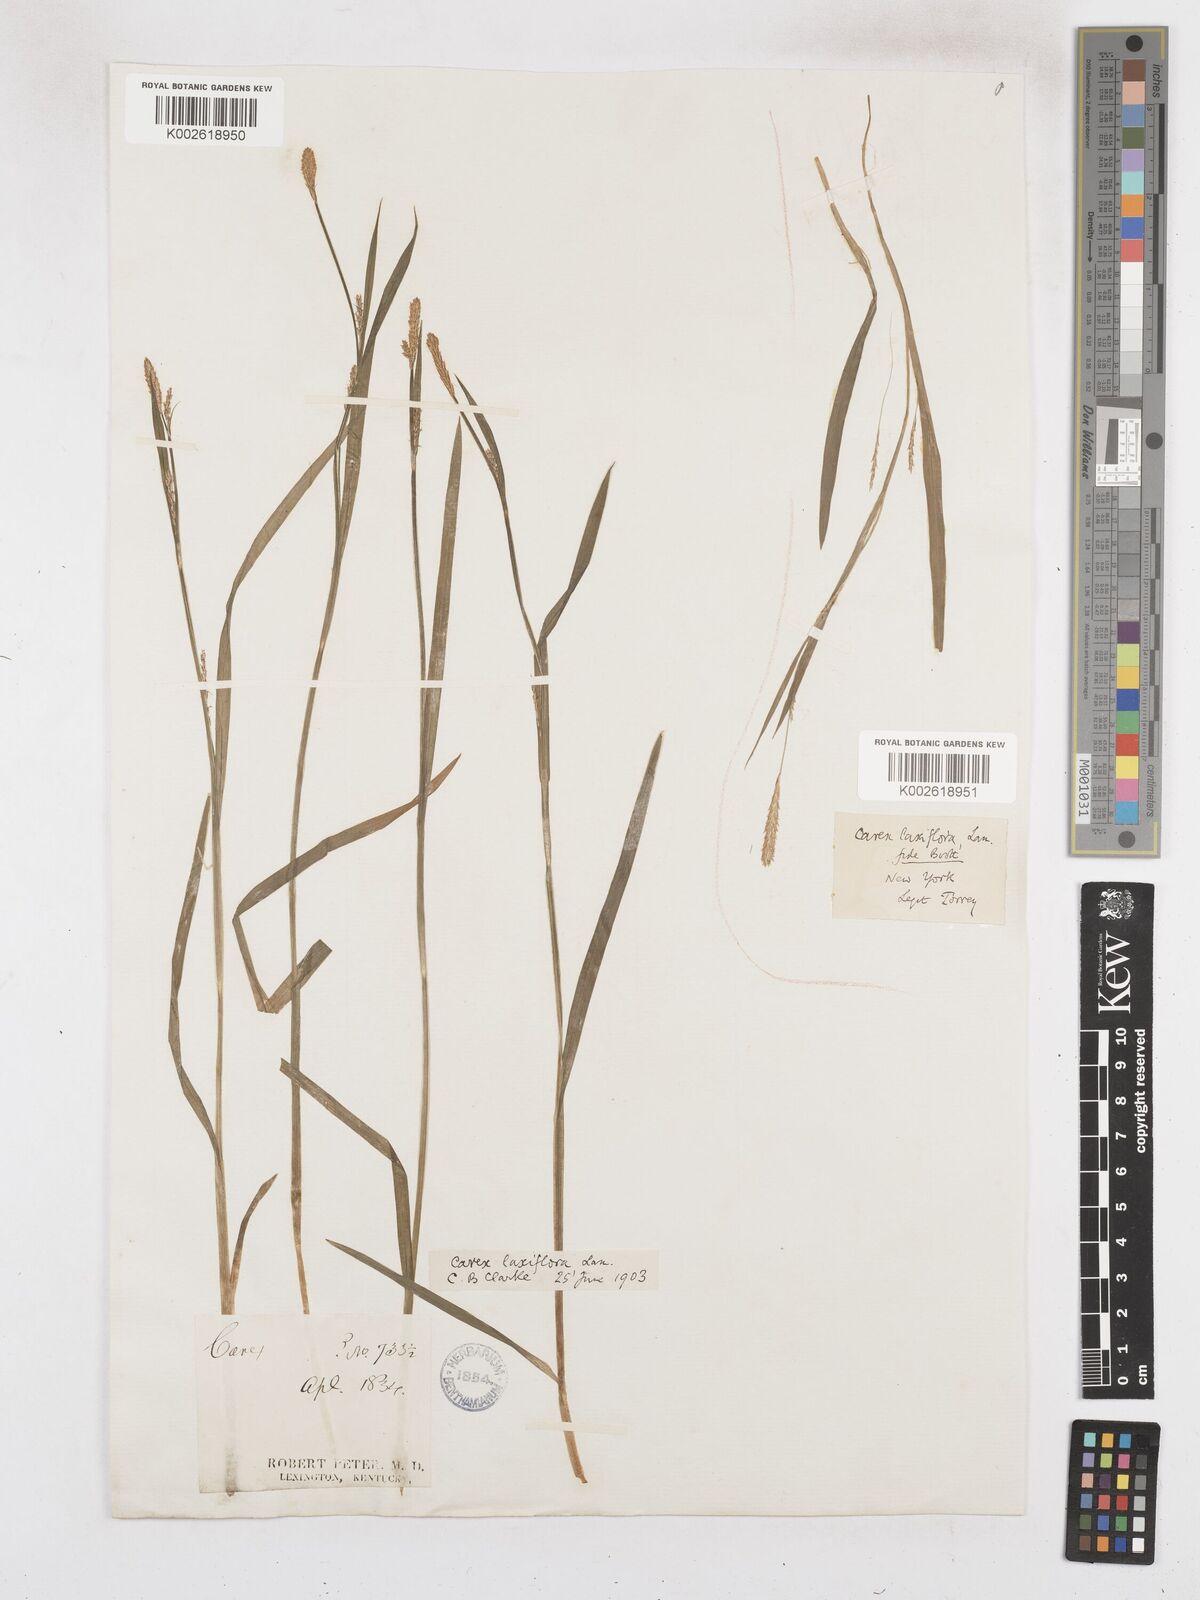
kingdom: Plantae
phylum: Tracheophyta
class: Liliopsida
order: Poales
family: Cyperaceae
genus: Carex
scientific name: Carex laxiflora
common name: Beech wood sedge
